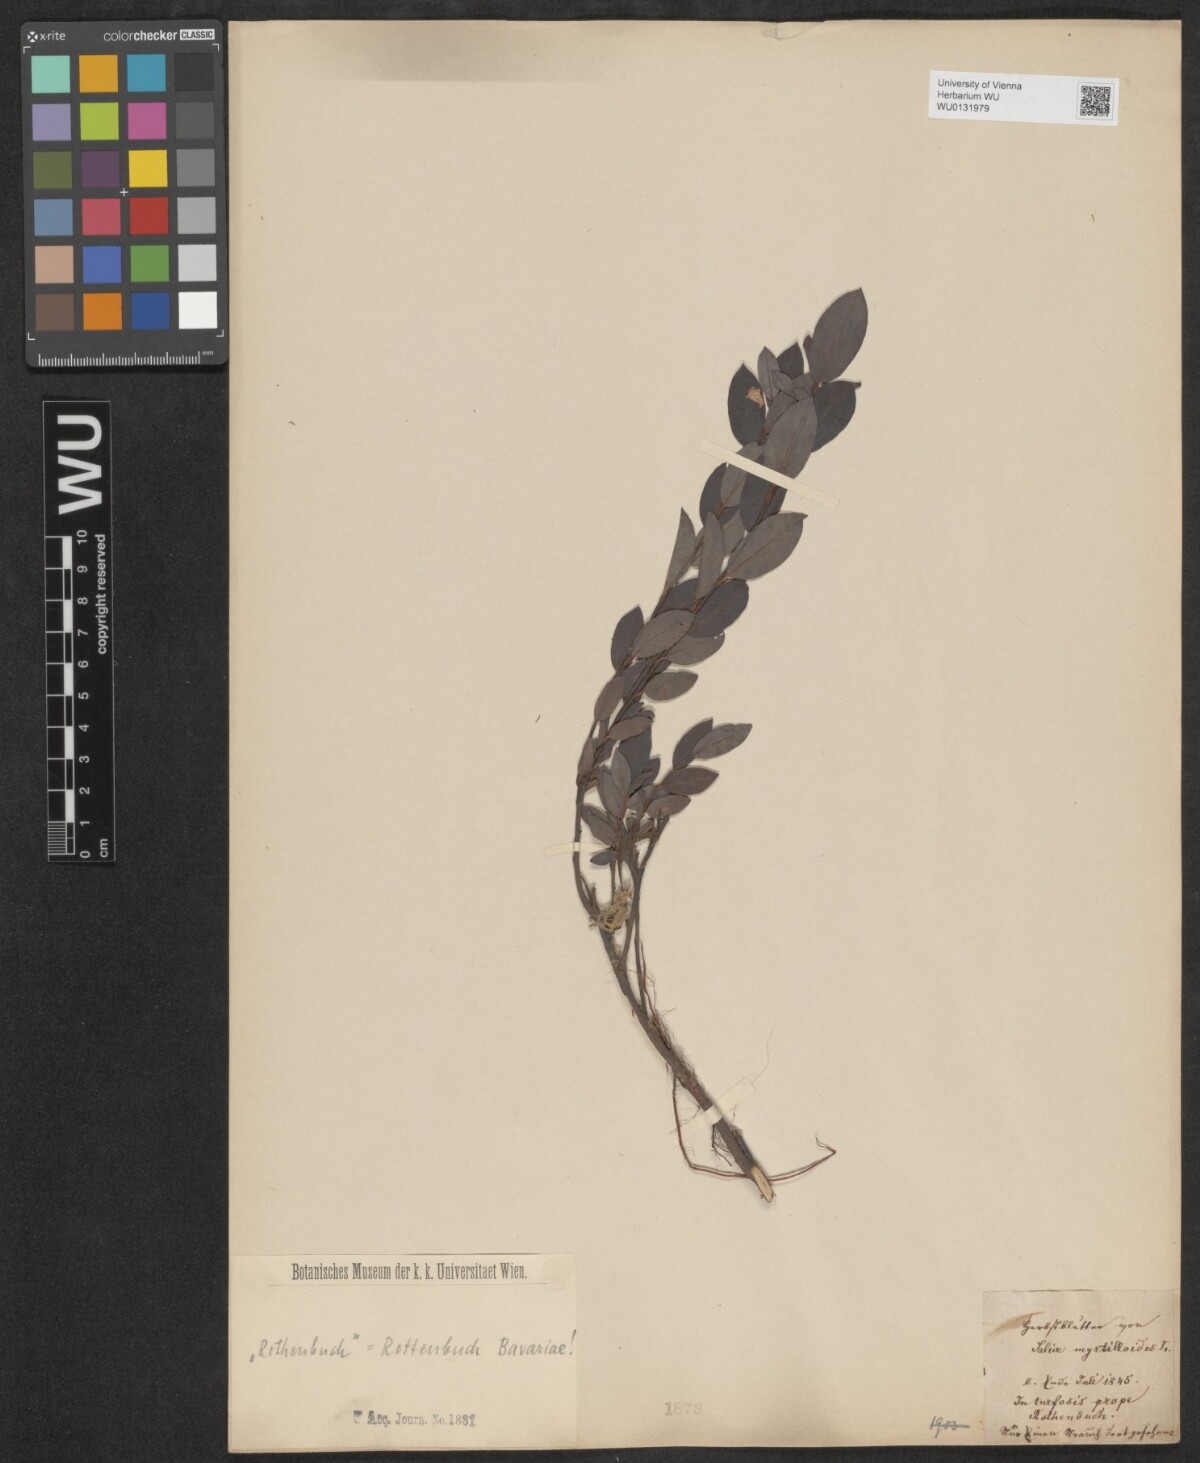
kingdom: Plantae
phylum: Tracheophyta
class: Magnoliopsida
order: Malpighiales
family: Salicaceae
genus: Salix
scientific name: Salix myrtilloides
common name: Myrtle-leaved willow
